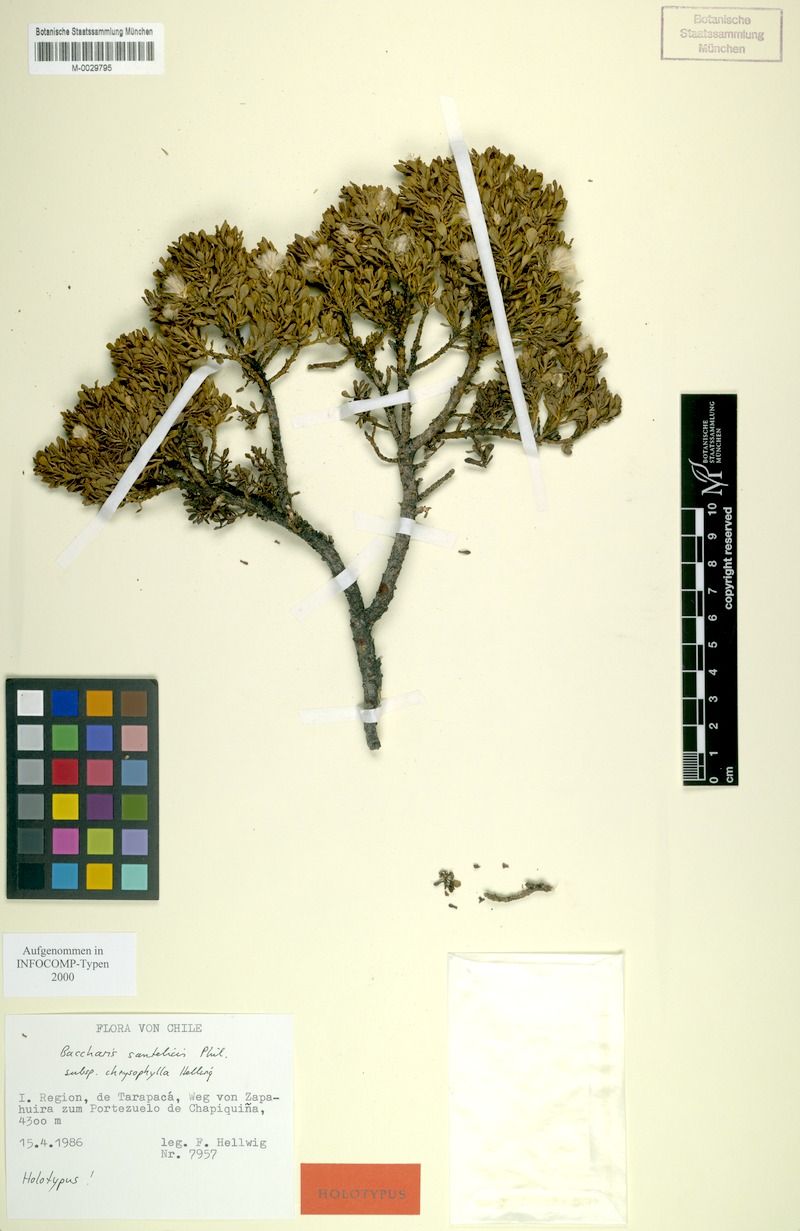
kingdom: Plantae
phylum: Tracheophyta
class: Magnoliopsida
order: Asterales
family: Asteraceae
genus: Baccharis
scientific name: Baccharis chrysophylla
